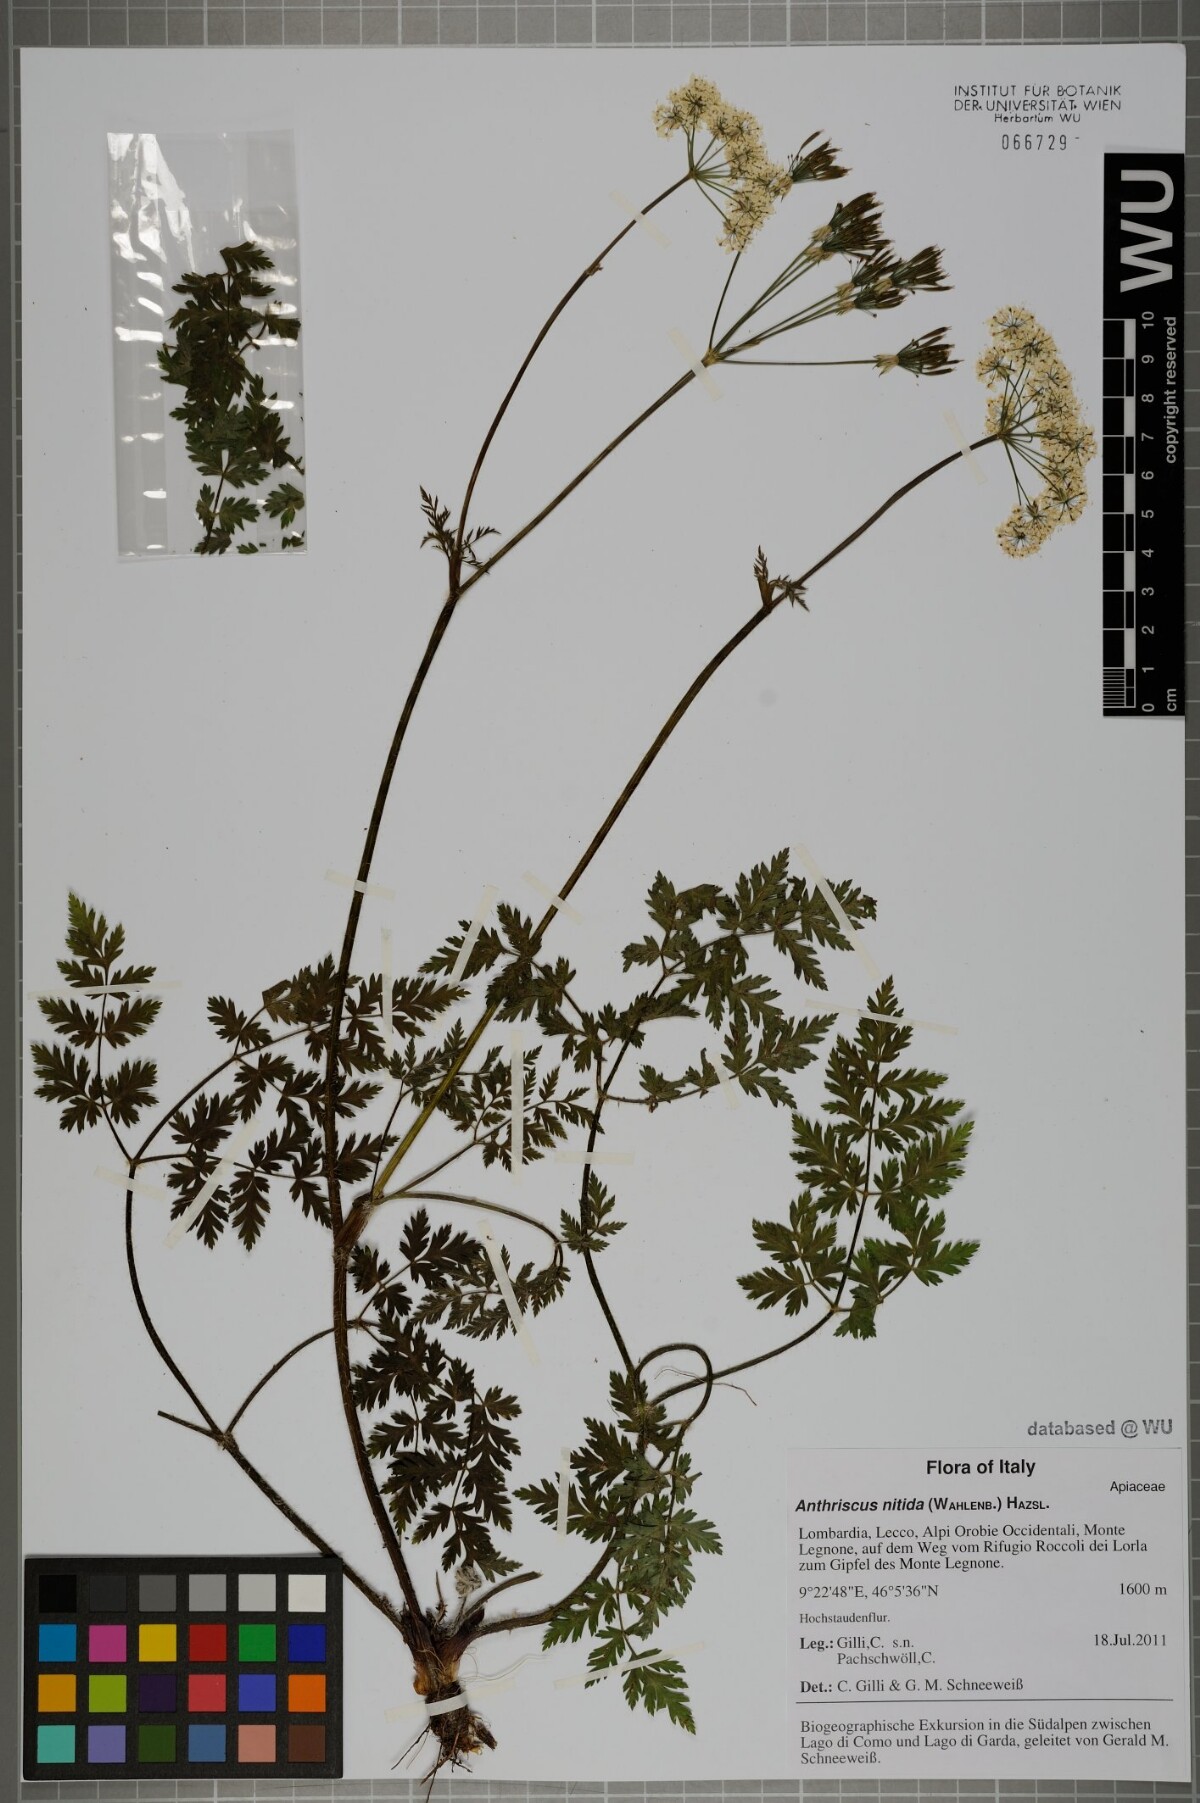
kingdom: Plantae
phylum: Tracheophyta
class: Magnoliopsida
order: Apiales
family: Apiaceae
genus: Chaerophyllum
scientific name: Chaerophyllum villarsii
